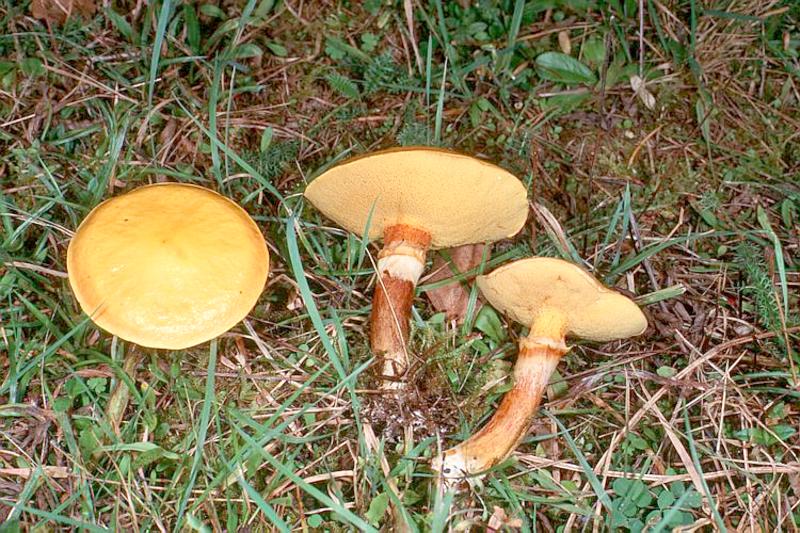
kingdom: Fungi
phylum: Basidiomycota
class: Agaricomycetes
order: Boletales
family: Suillaceae
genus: Suillus
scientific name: Suillus grevillei
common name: Larch bolete
